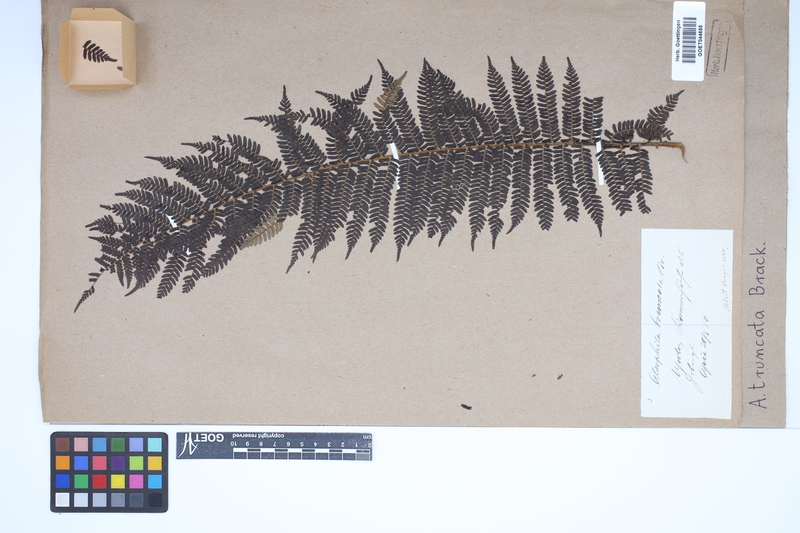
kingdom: Plantae
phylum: Tracheophyta
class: Polypodiopsida
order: Cyatheales
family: Cyatheaceae
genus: Sphaeropteris
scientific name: Sphaeropteris truncata
